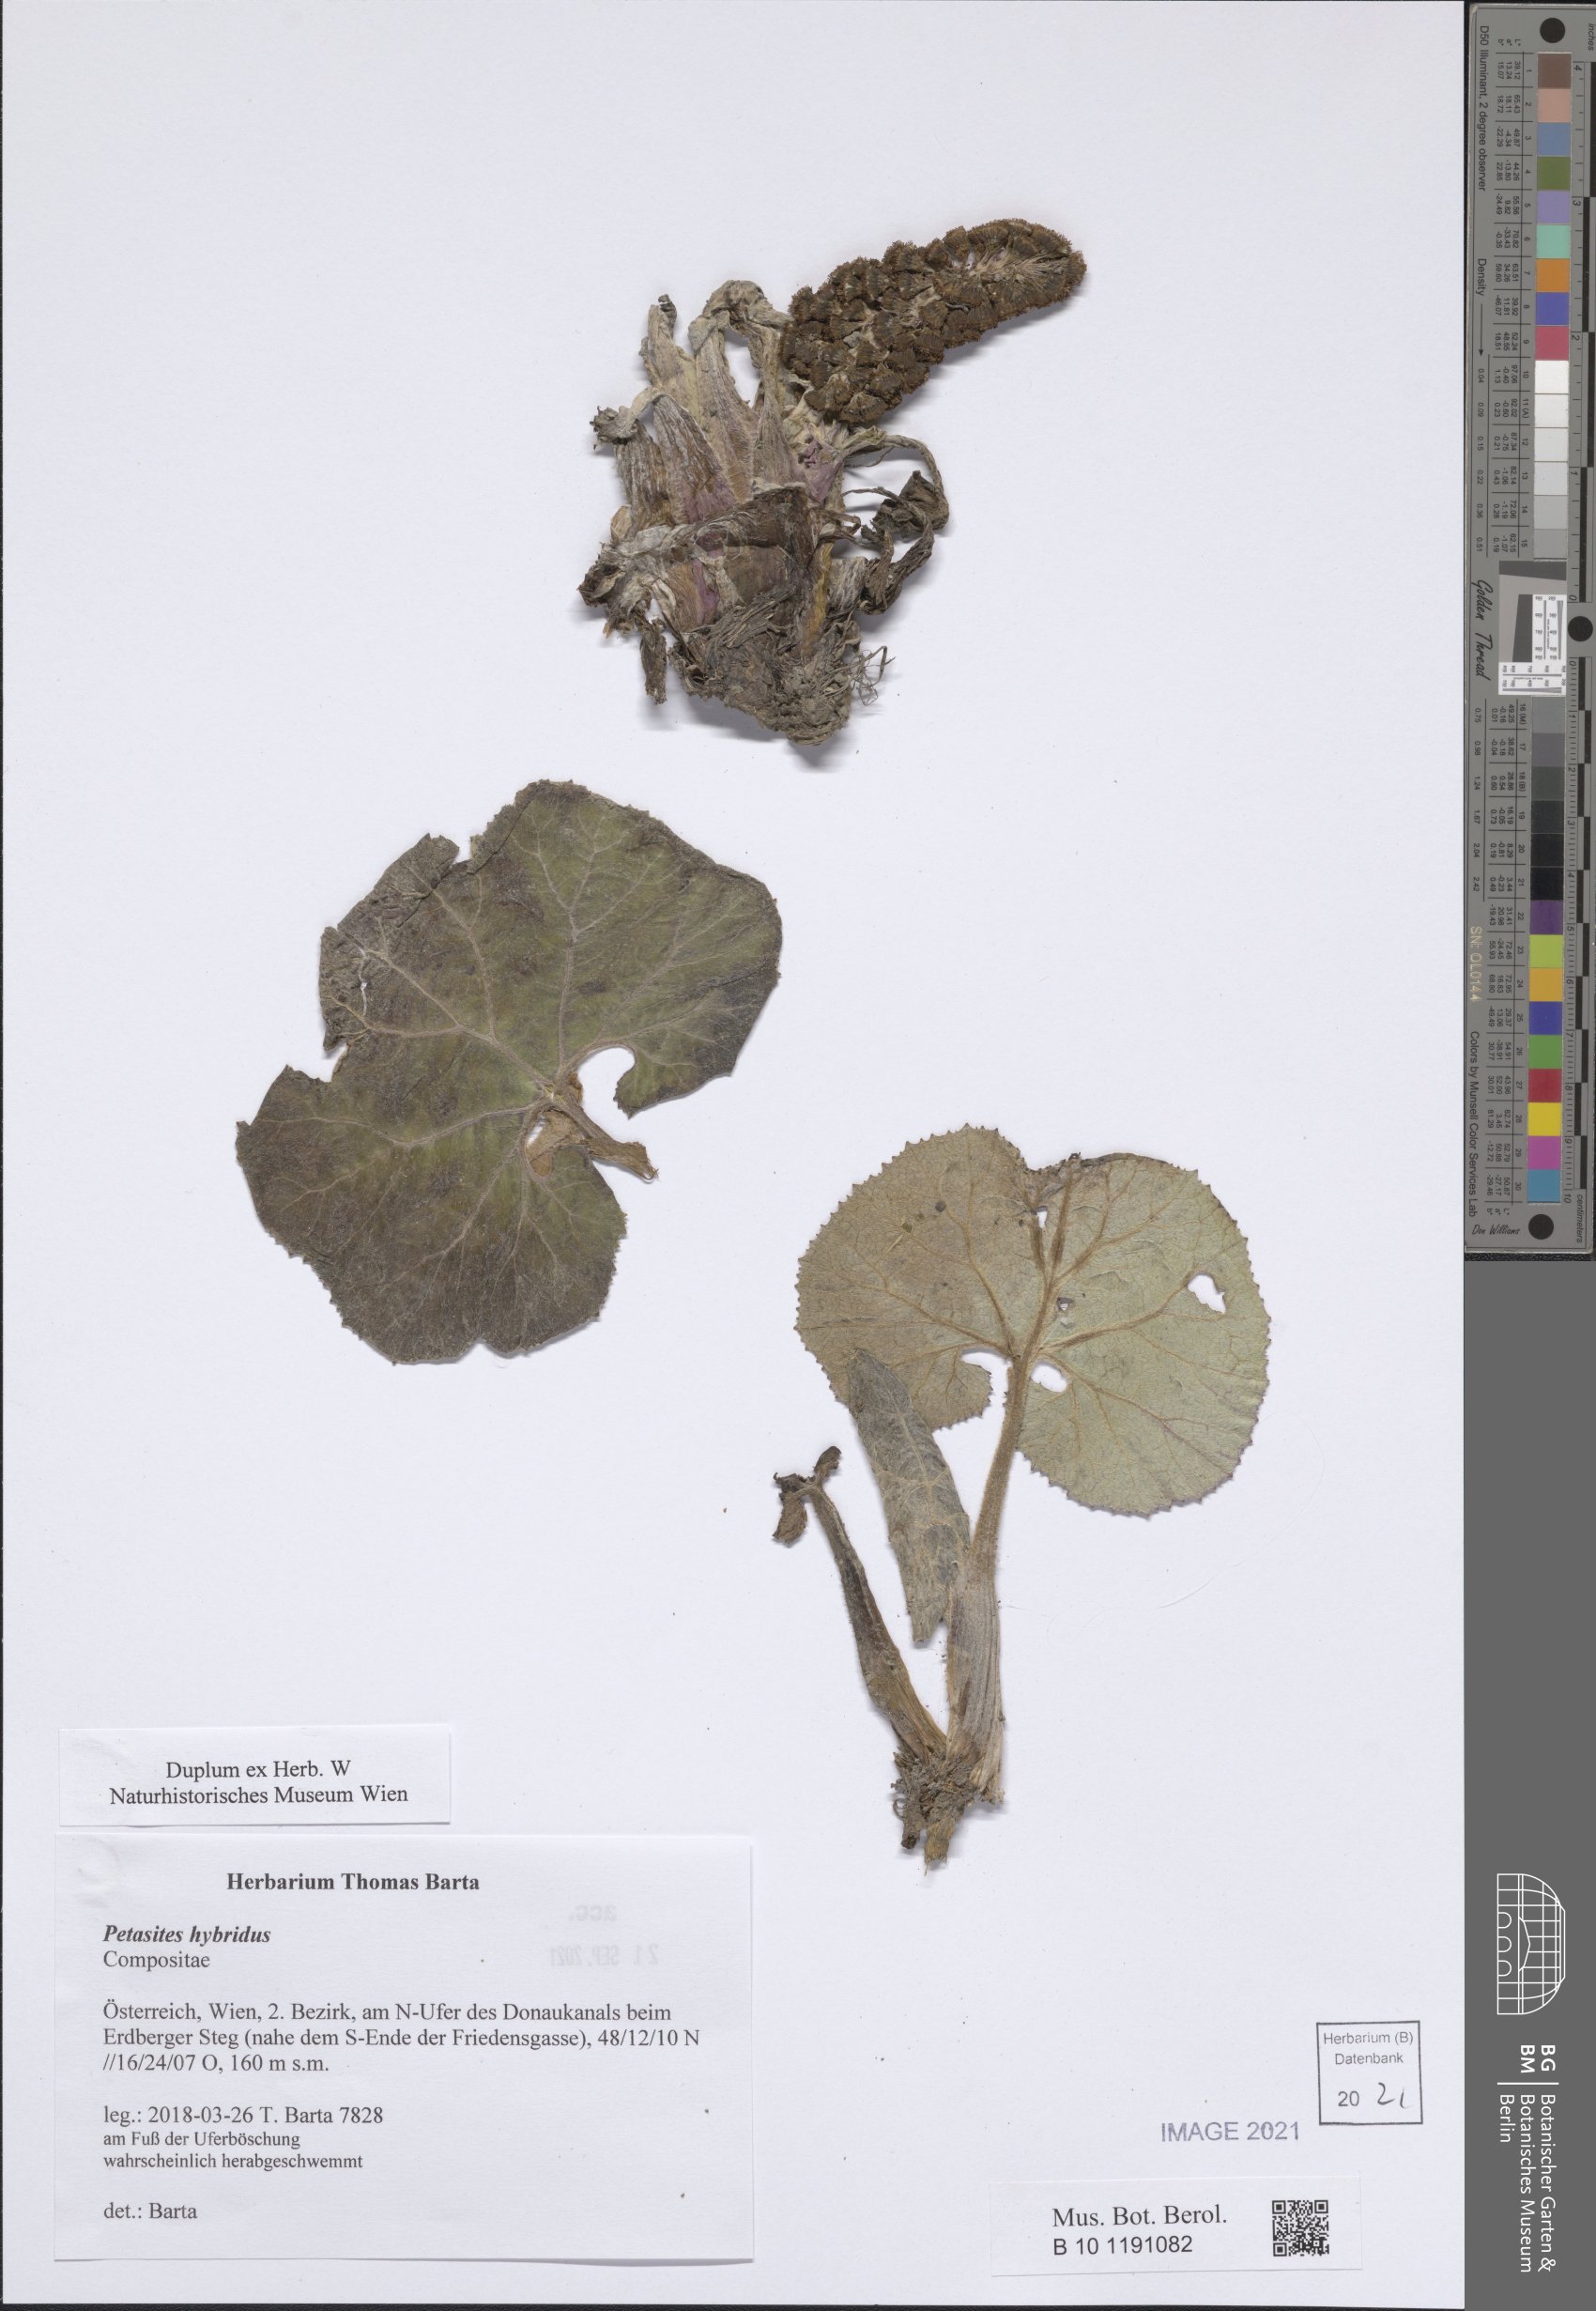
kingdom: Plantae
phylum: Tracheophyta
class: Magnoliopsida
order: Asterales
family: Asteraceae
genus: Petasites
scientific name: Petasites hybridus
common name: Butterbur
